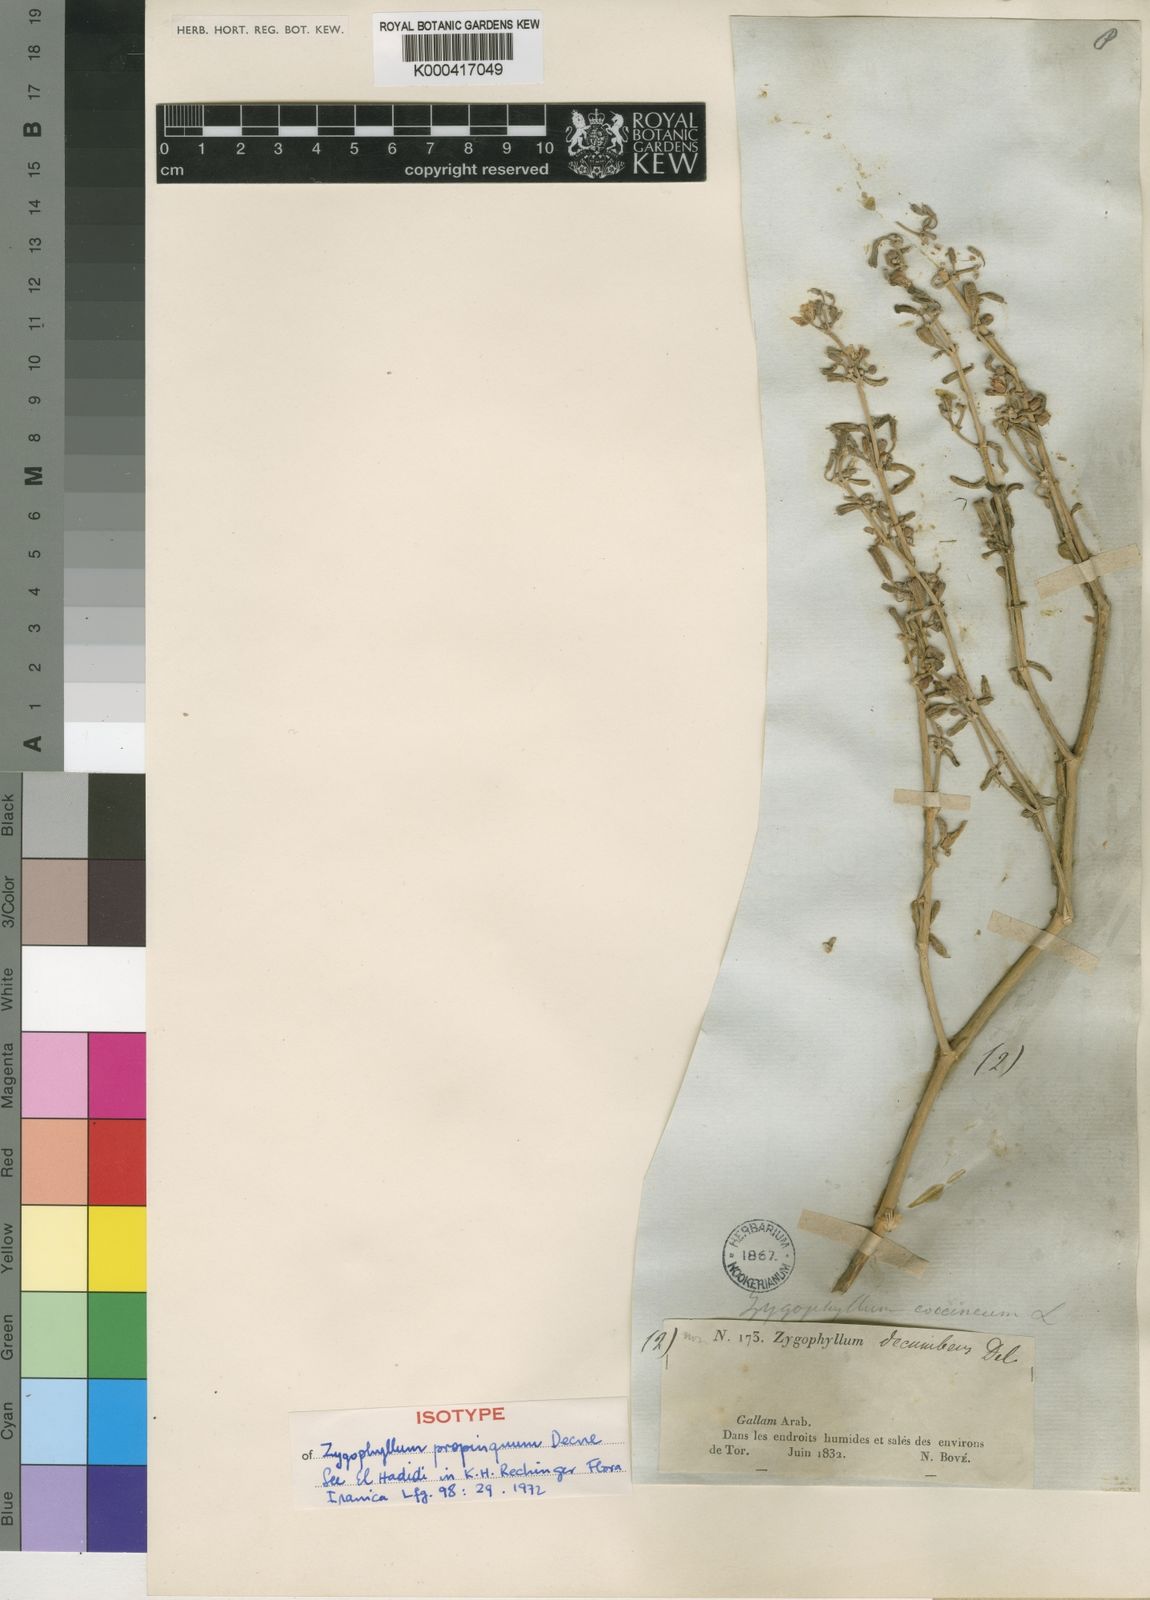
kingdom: Plantae
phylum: Tracheophyta
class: Magnoliopsida
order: Zygophyllales
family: Zygophyllaceae
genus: Tetraena
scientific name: Tetraena
